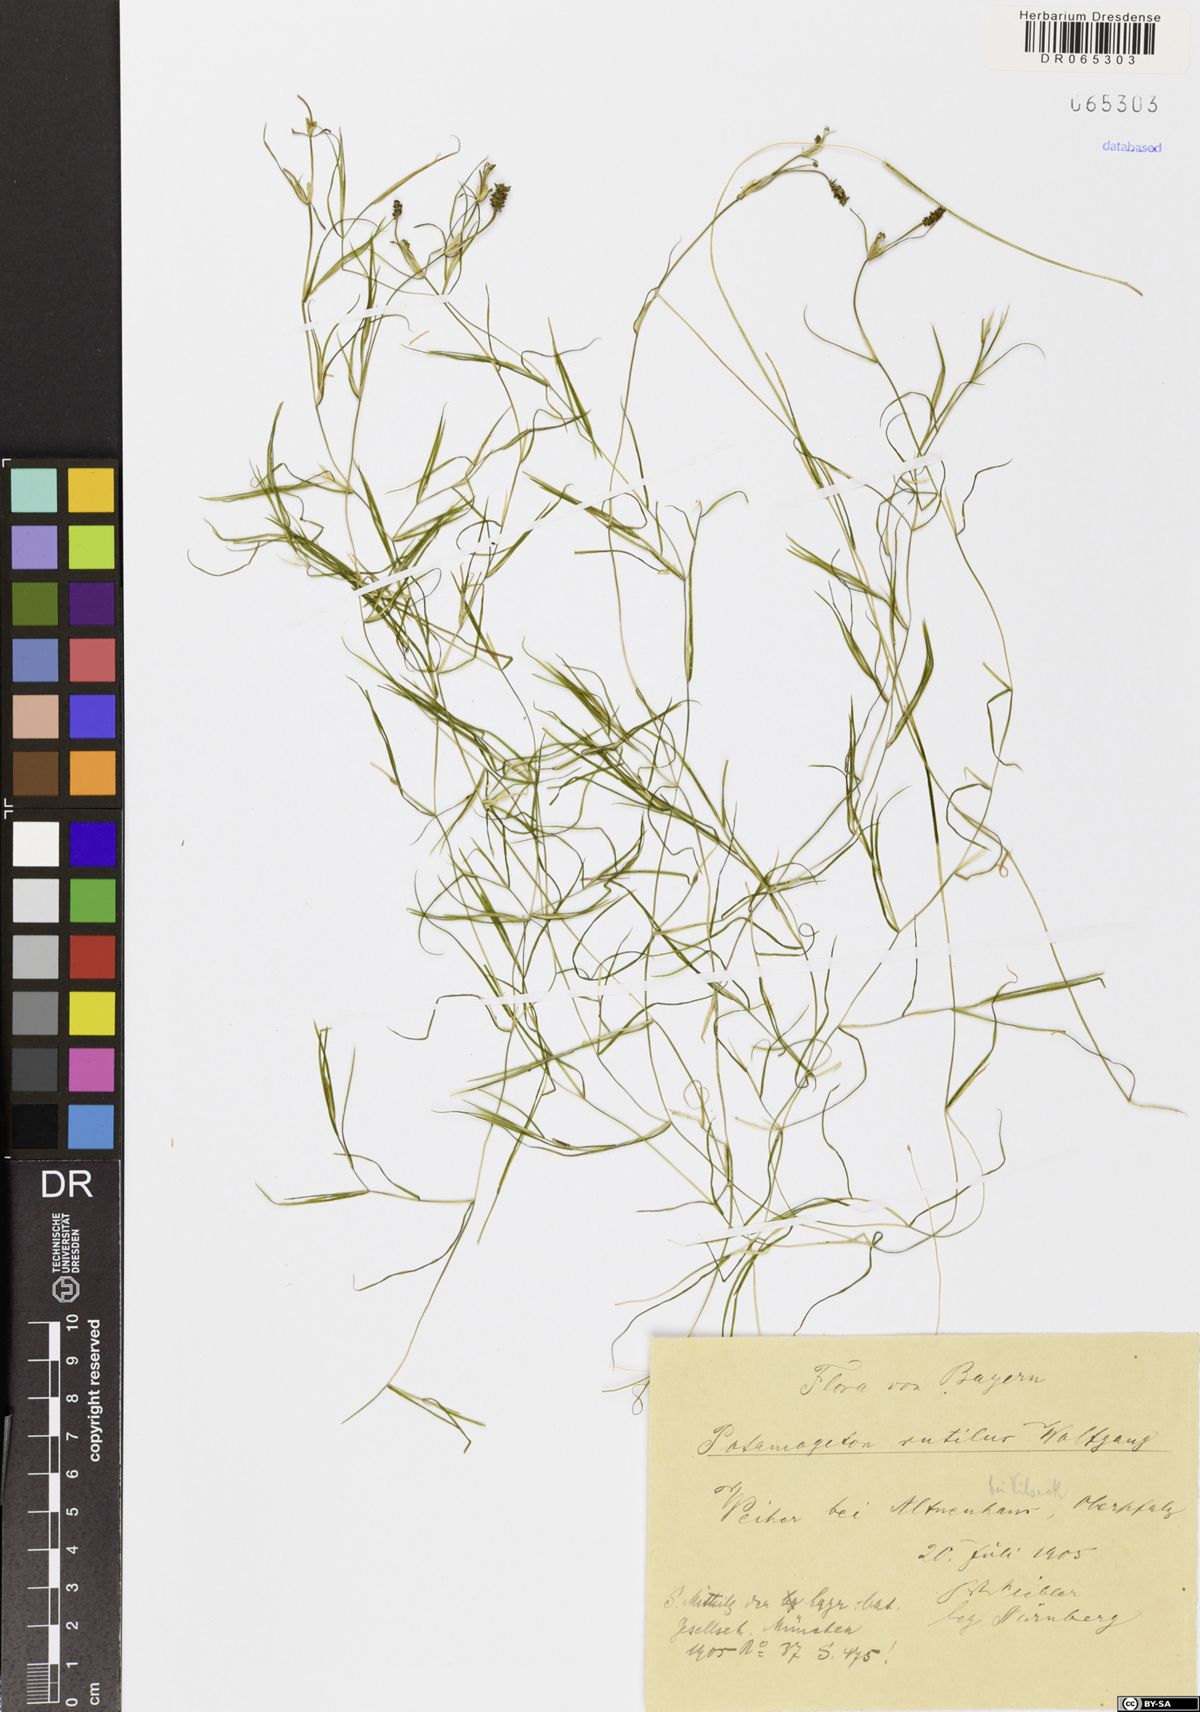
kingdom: Plantae
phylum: Tracheophyta
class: Liliopsida
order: Alismatales
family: Potamogetonaceae
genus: Potamogeton
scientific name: Potamogeton rutilus
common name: Shetland pondweed
